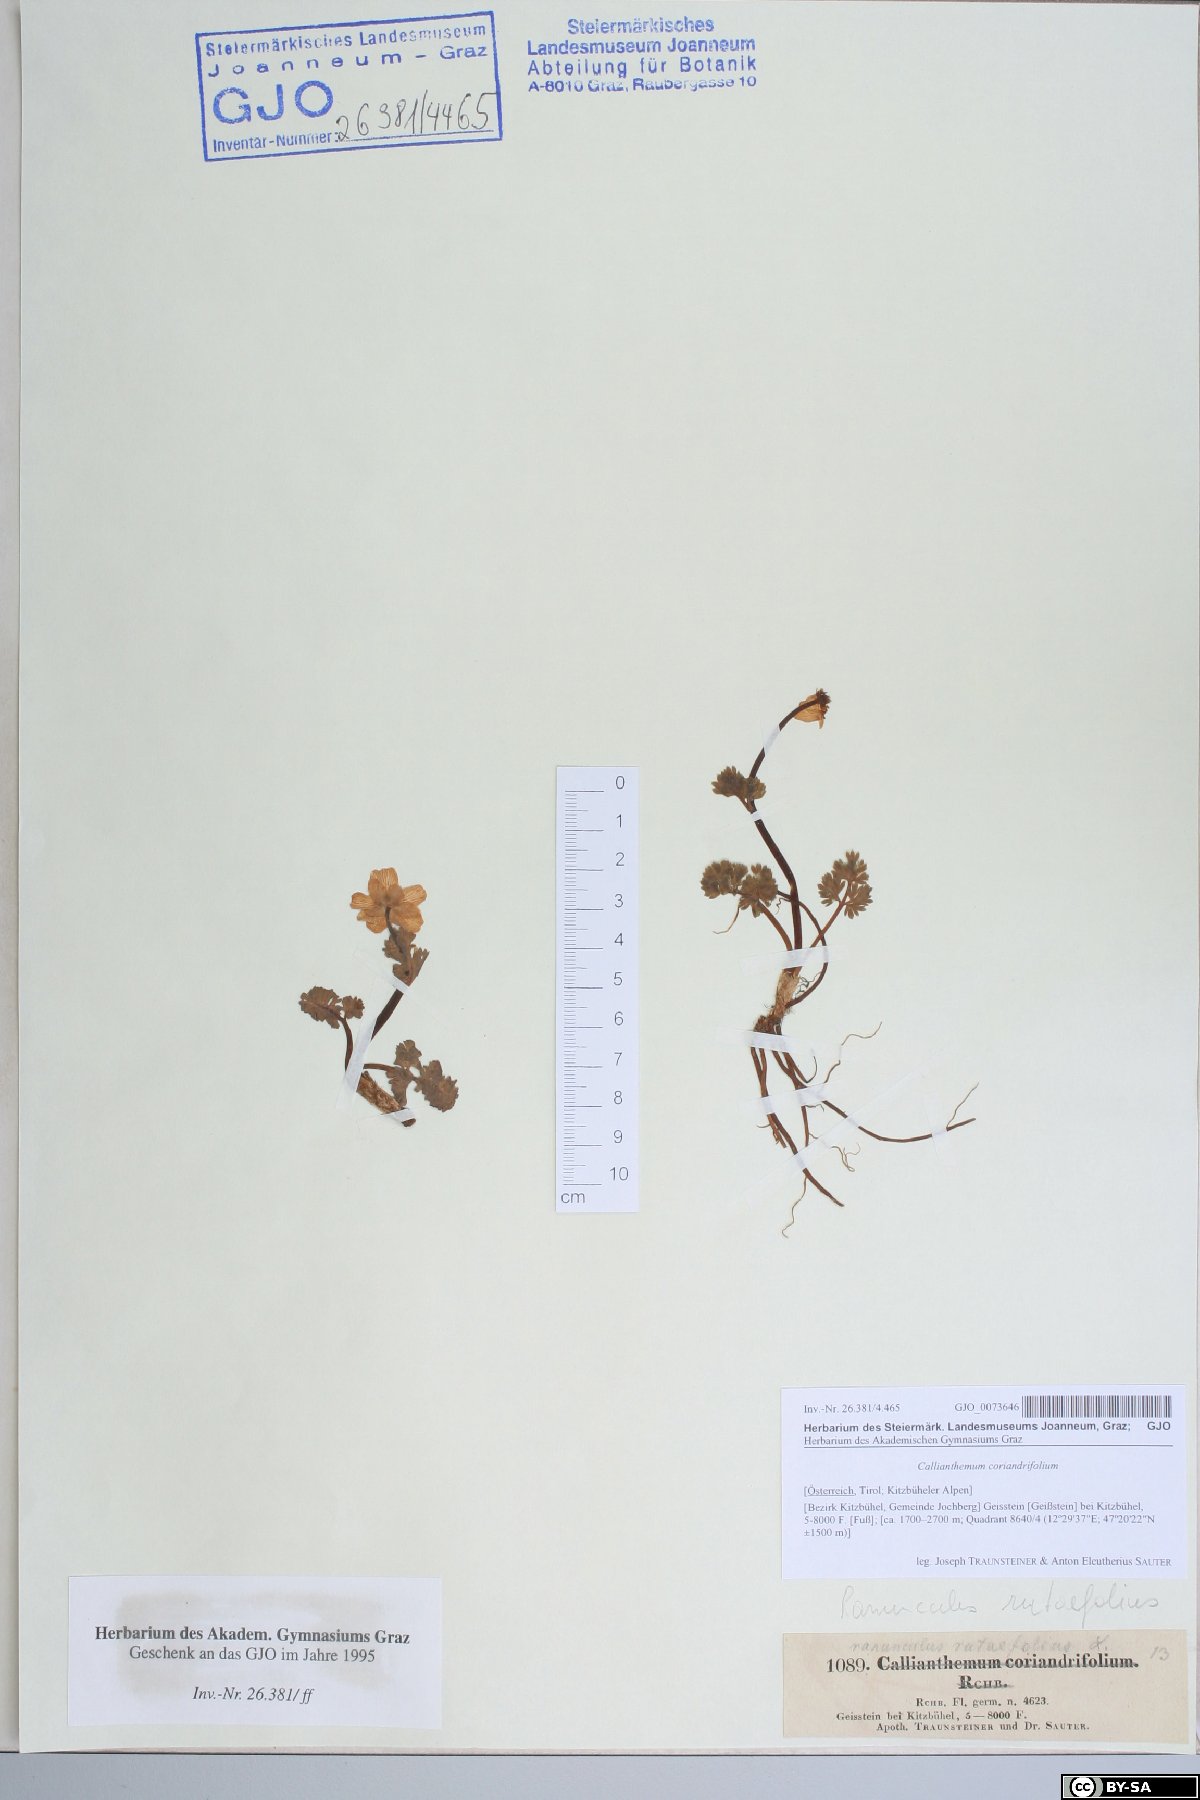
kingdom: Plantae
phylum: Tracheophyta
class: Magnoliopsida
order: Ranunculales
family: Ranunculaceae
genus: Callianthemum
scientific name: Callianthemum coriandrifolium
